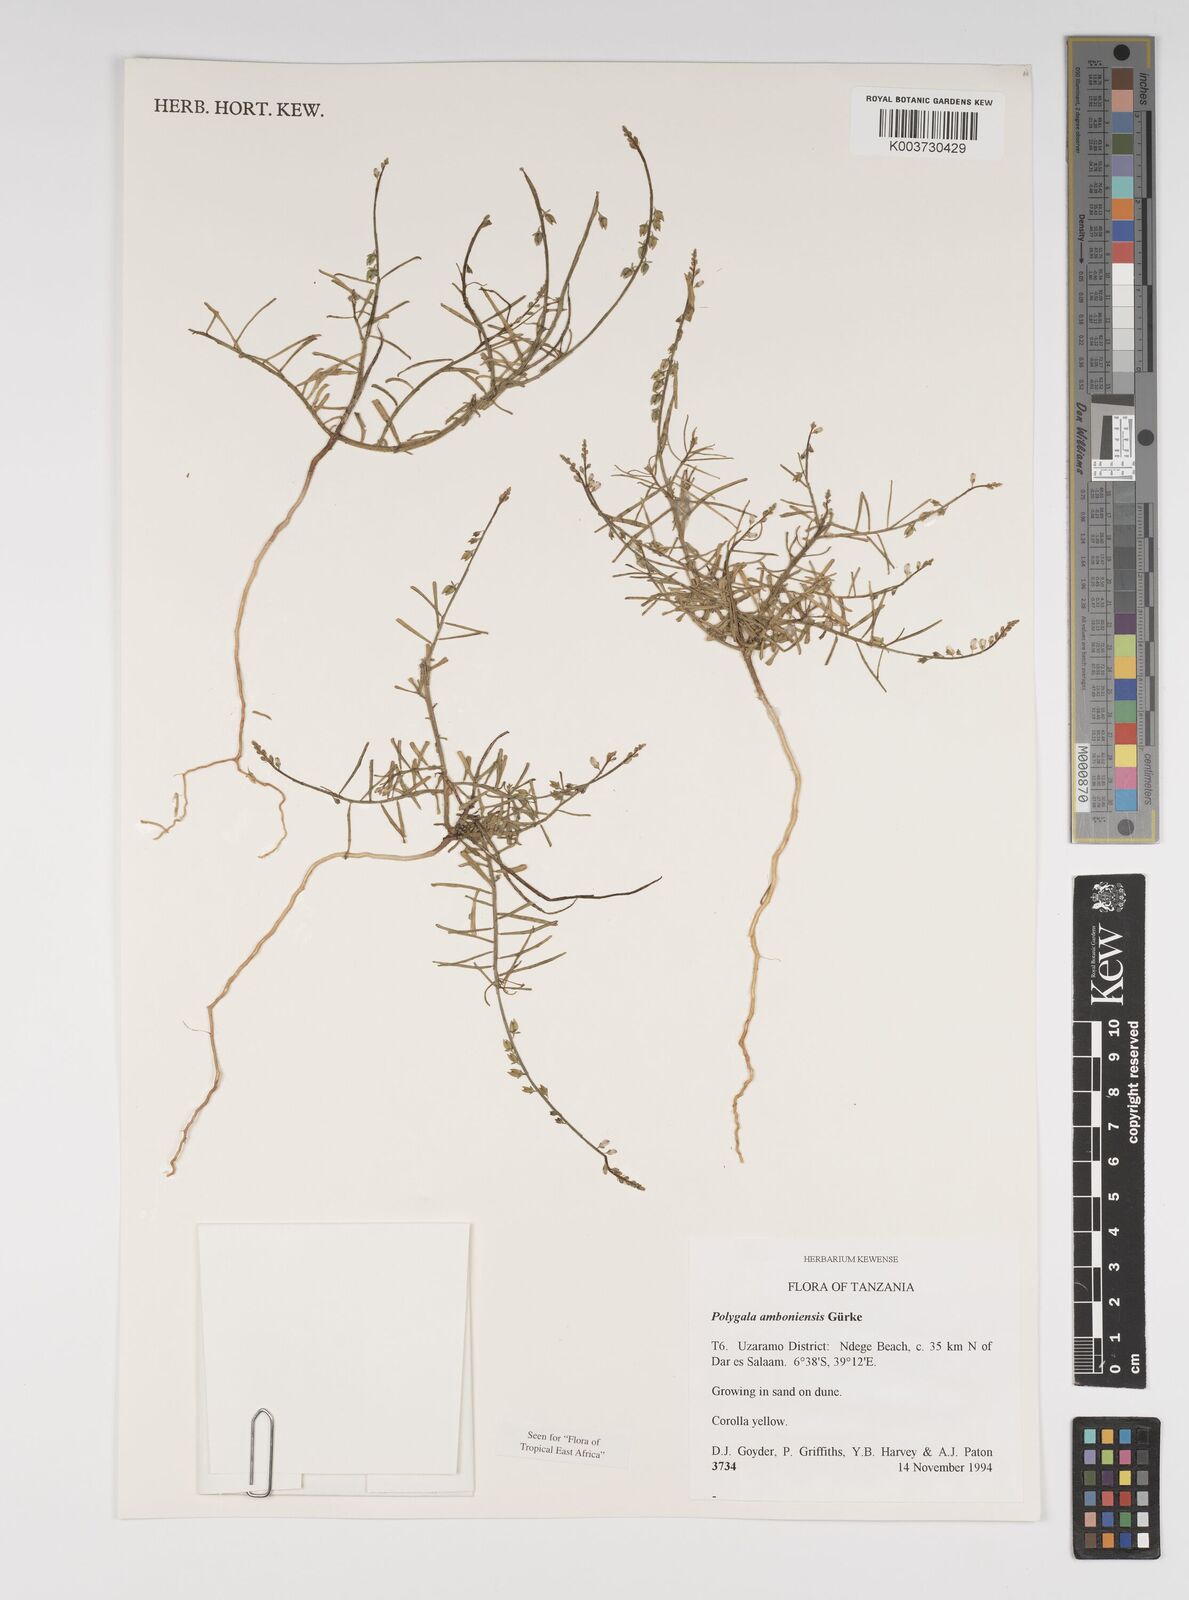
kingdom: Plantae
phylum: Tracheophyta
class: Magnoliopsida
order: Fabales
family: Polygalaceae
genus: Polygala
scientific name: Polygala amboniensis
